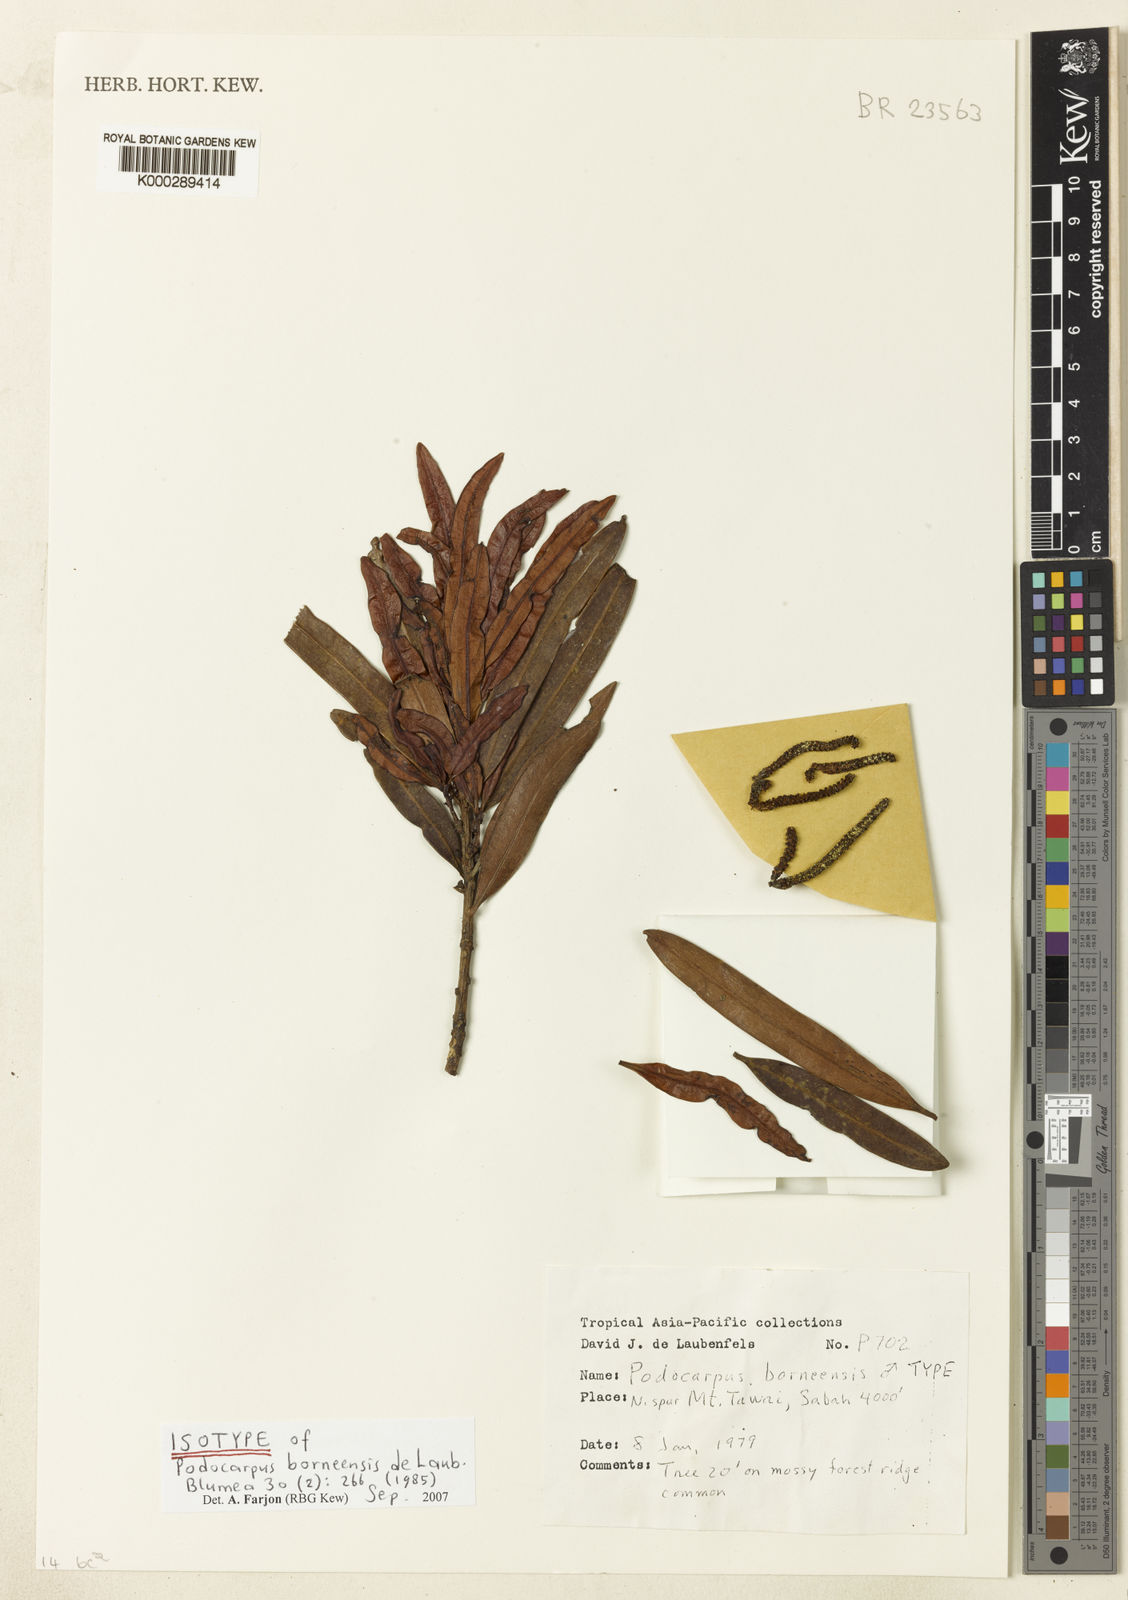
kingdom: Plantae
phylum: Tracheophyta
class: Pinopsida
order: Pinales
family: Podocarpaceae
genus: Podocarpus
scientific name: Podocarpus borneensis
